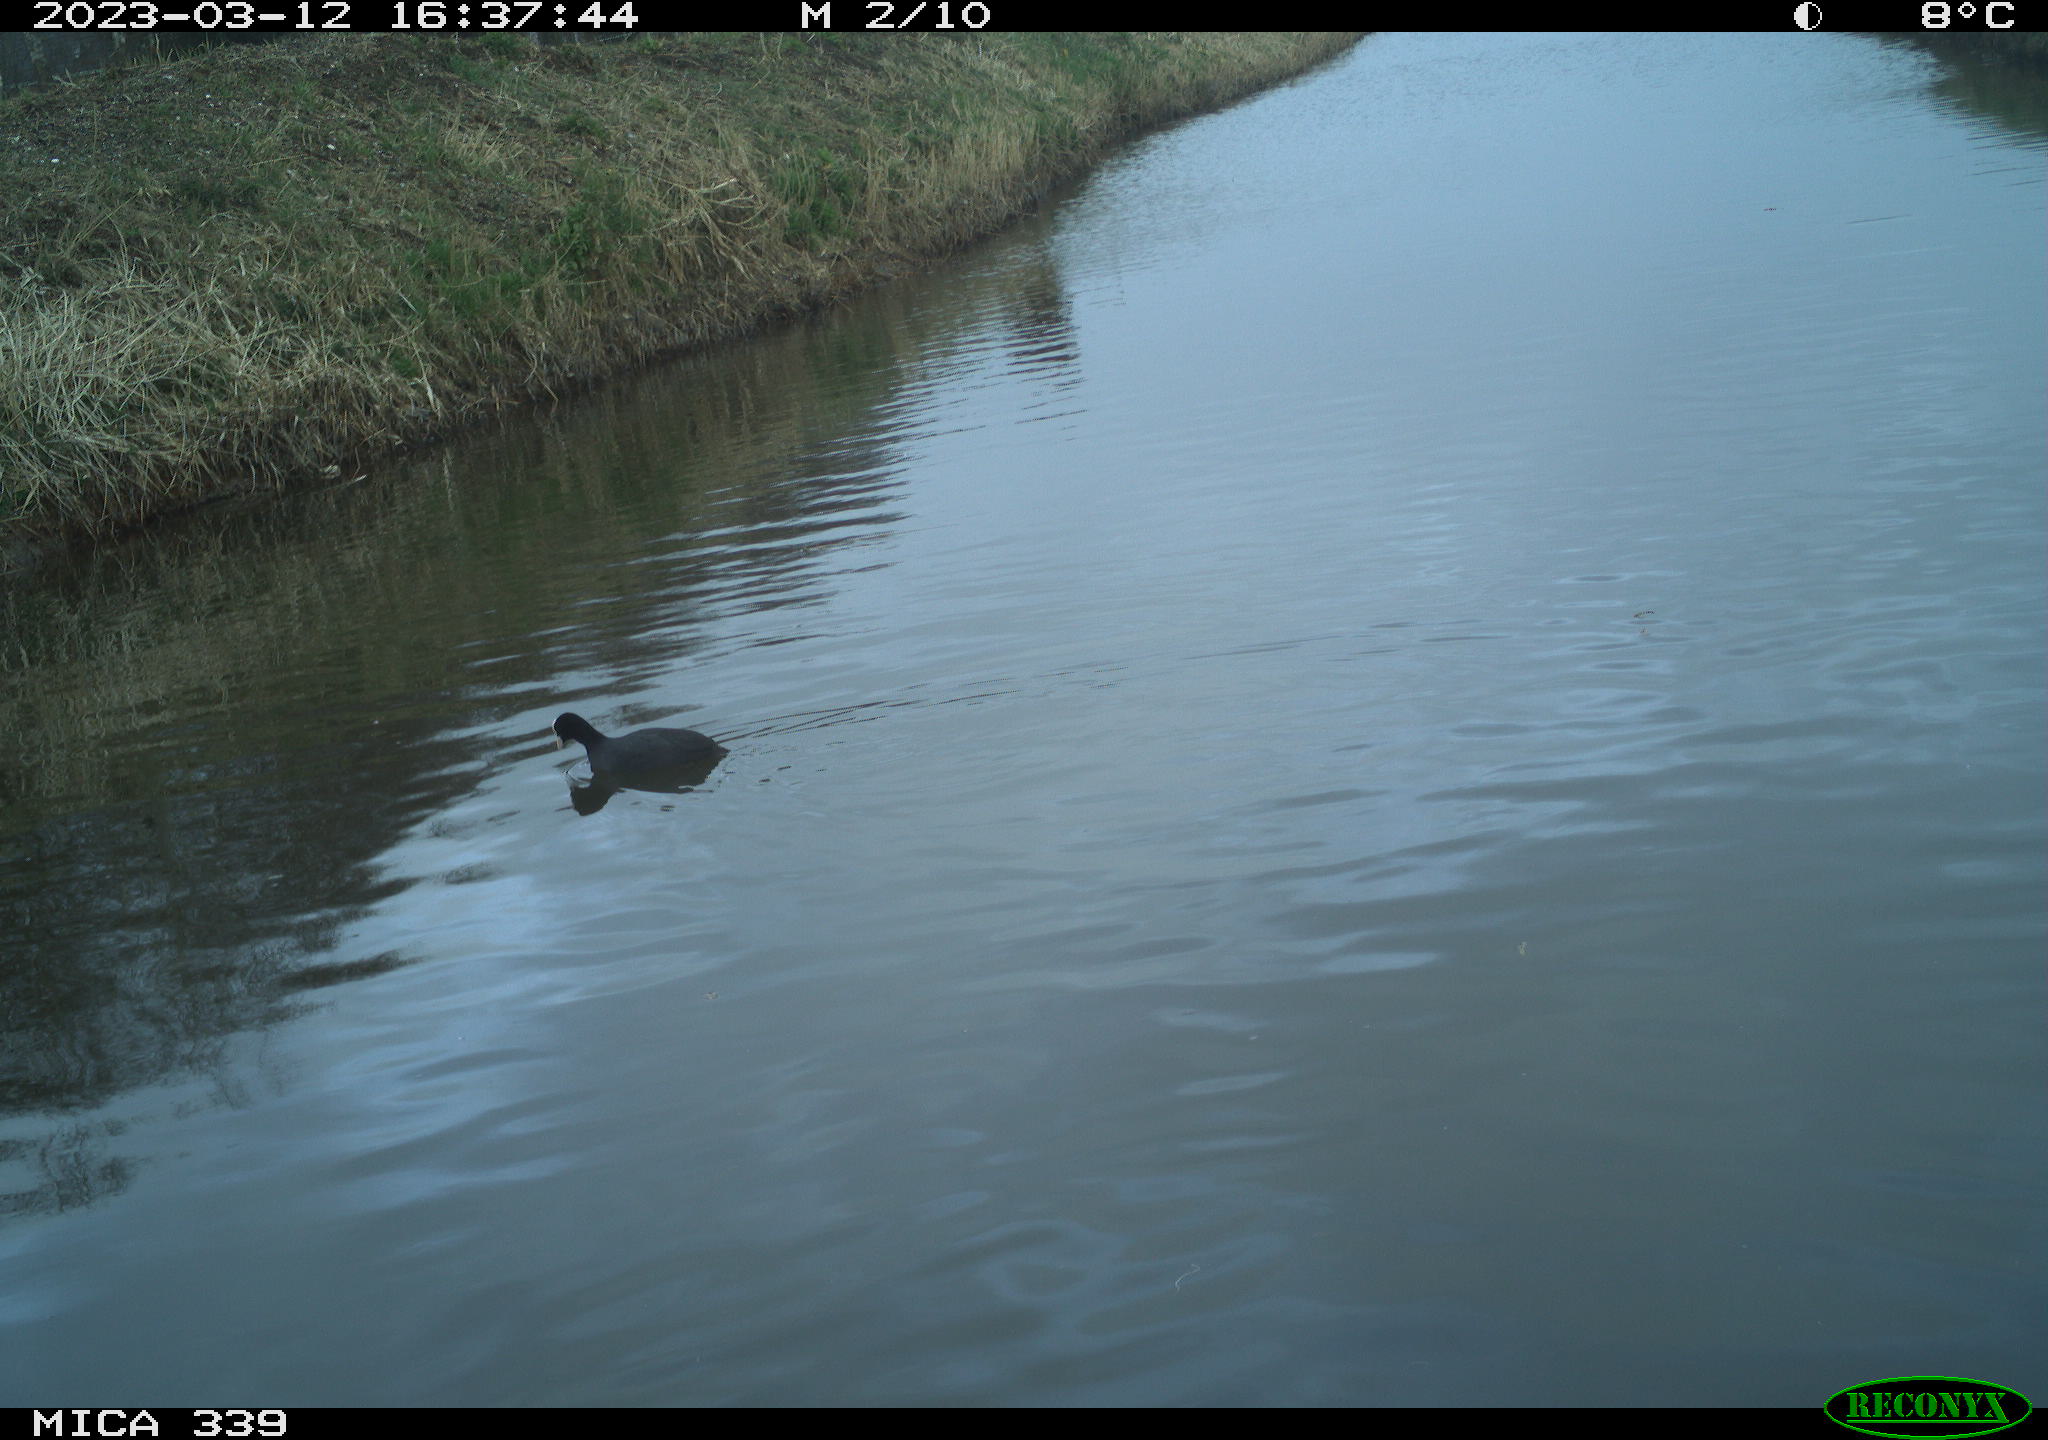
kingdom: Animalia
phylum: Chordata
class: Aves
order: Gruiformes
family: Rallidae
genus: Fulica
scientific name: Fulica atra
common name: Eurasian coot
